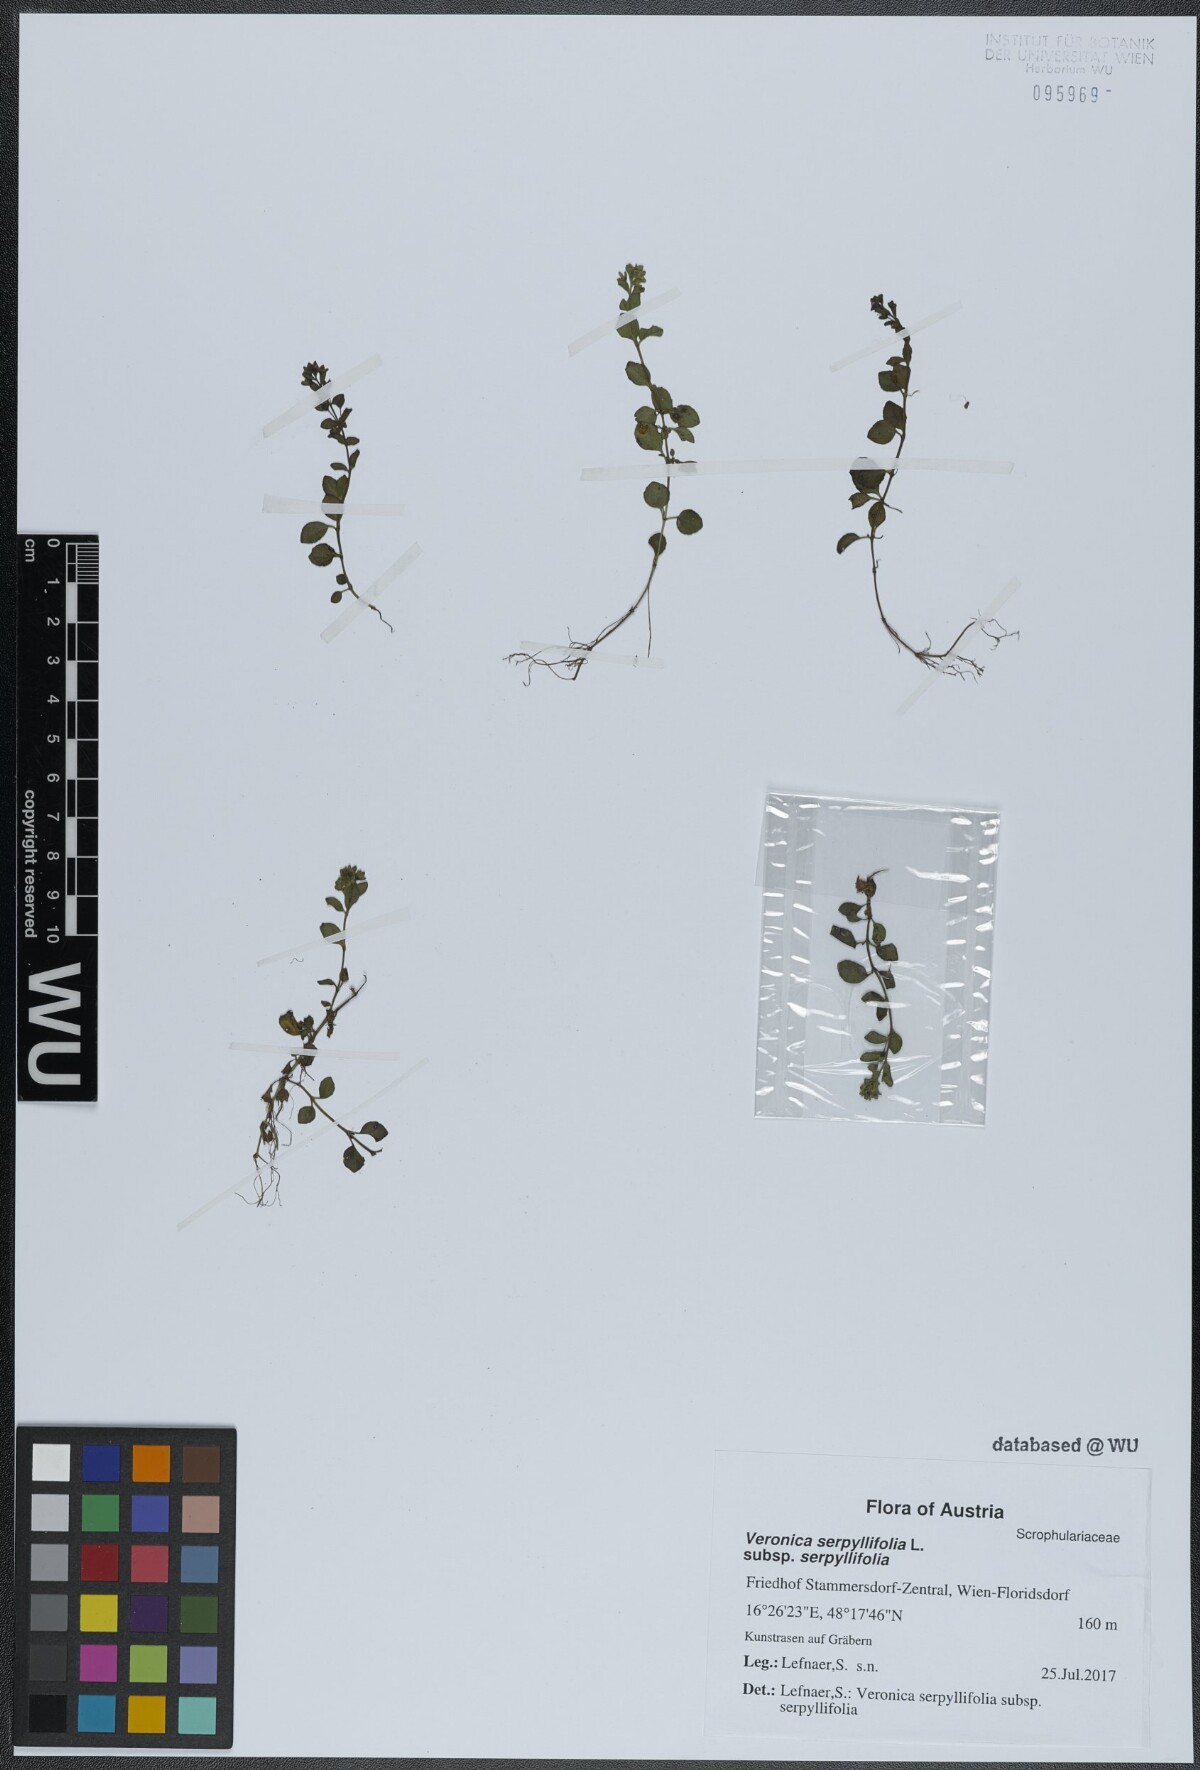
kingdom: Plantae
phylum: Tracheophyta
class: Magnoliopsida
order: Lamiales
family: Plantaginaceae
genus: Veronica
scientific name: Veronica serpyllifolia
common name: Thyme-leaved speedwell
